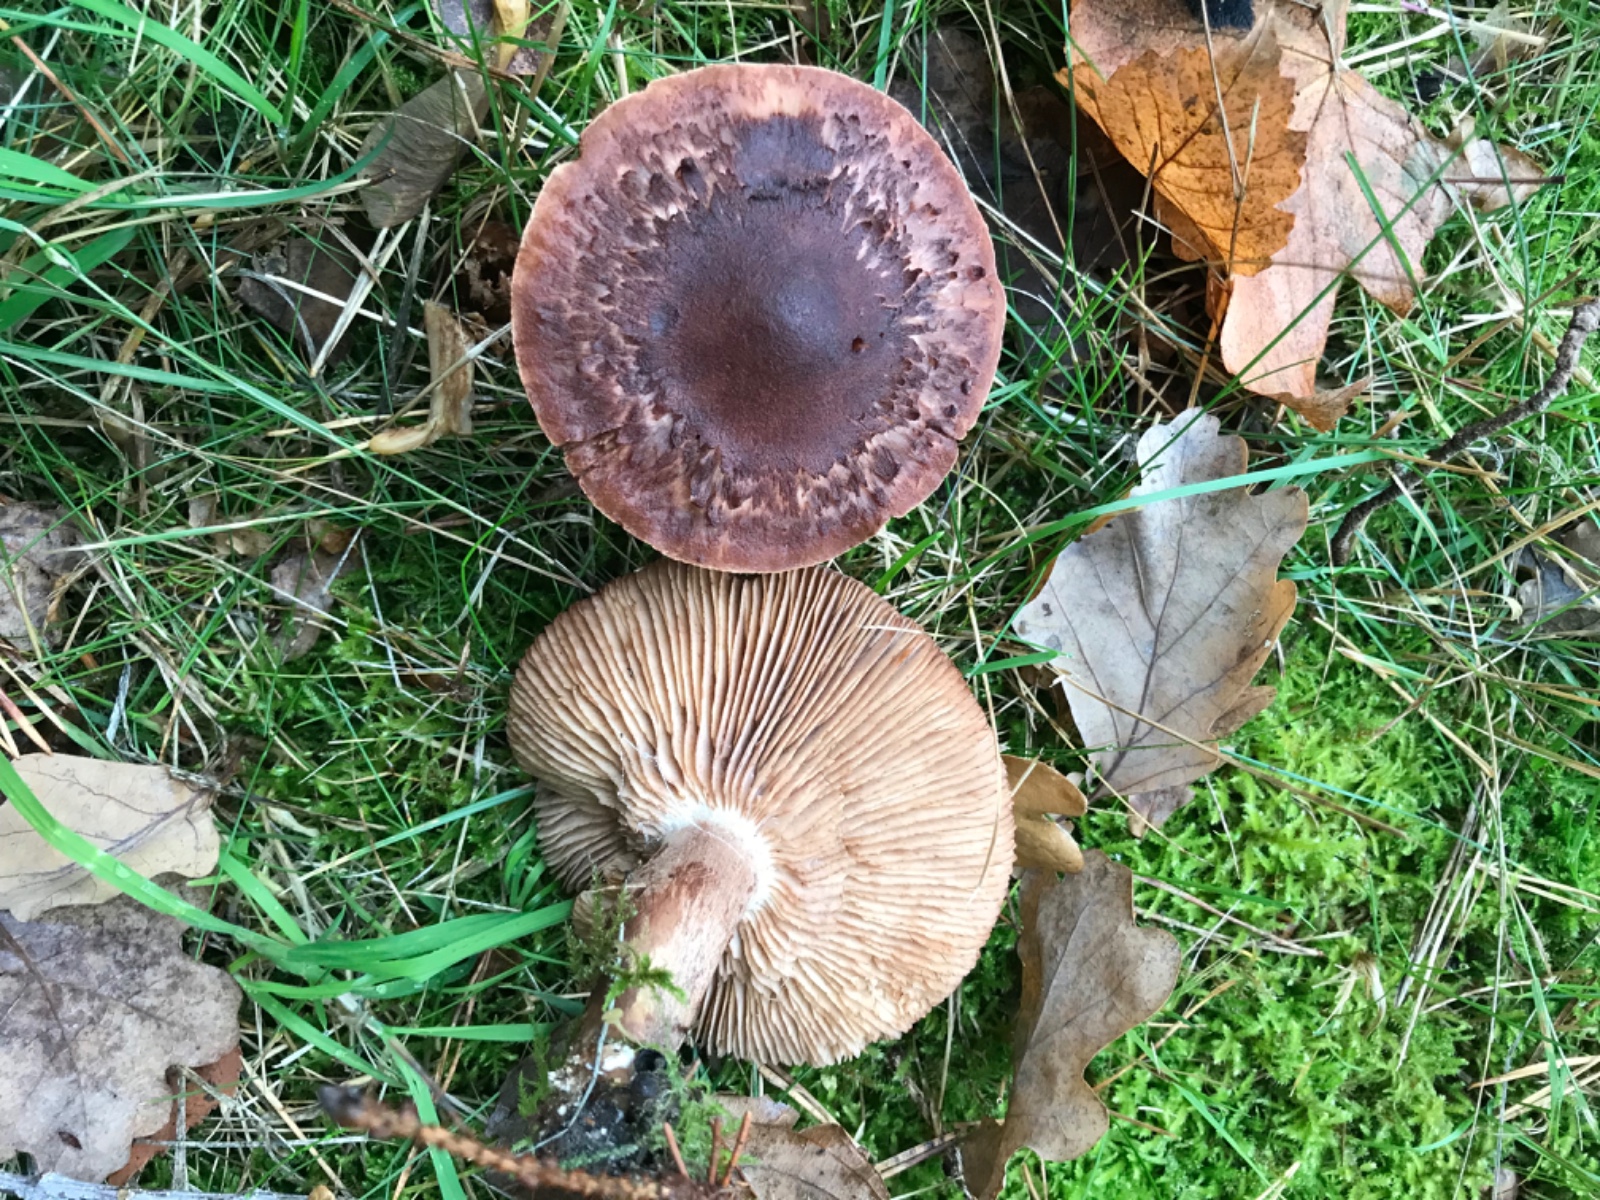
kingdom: Fungi
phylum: Basidiomycota
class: Agaricomycetes
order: Agaricales
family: Tricholomataceae
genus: Tricholoma
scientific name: Tricholoma imbricatum
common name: skællet ridderhat
